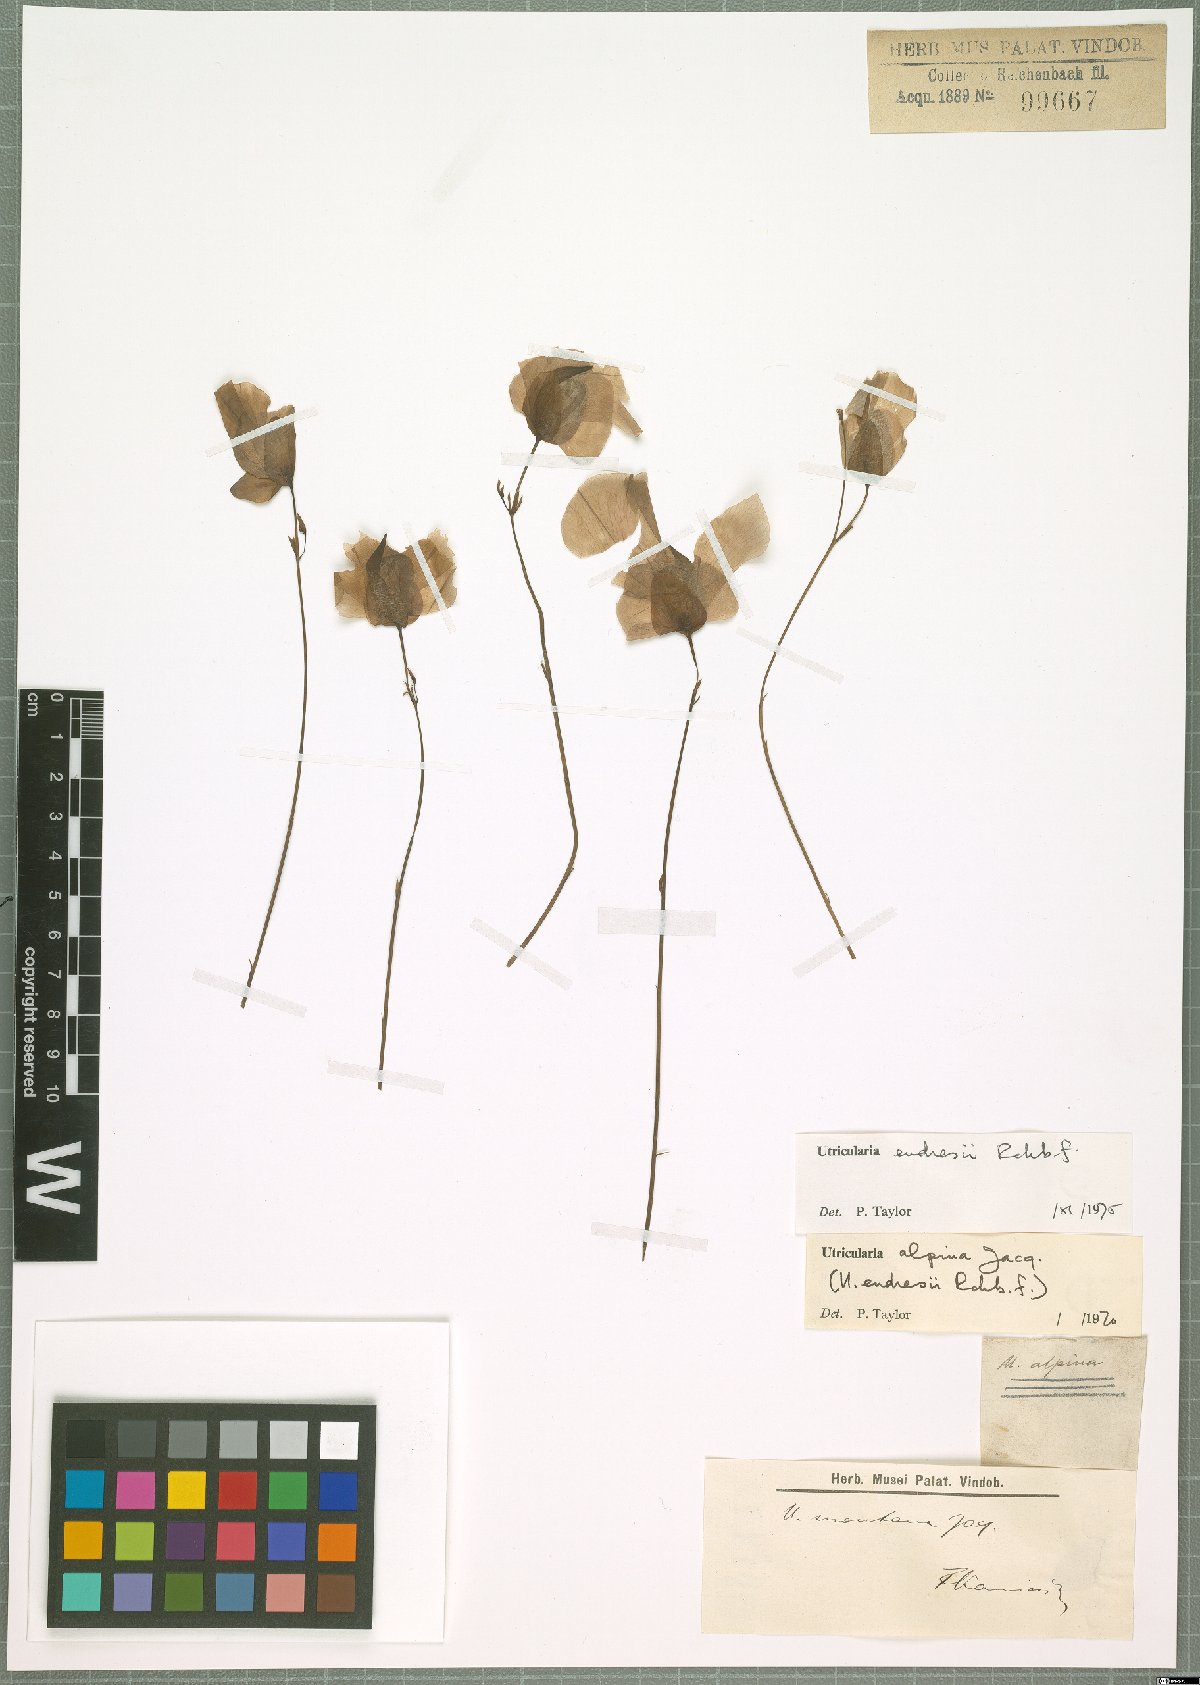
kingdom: Plantae
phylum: Tracheophyta
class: Magnoliopsida
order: Lamiales
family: Lentibulariaceae
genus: Utricularia
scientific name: Utricularia endresii
